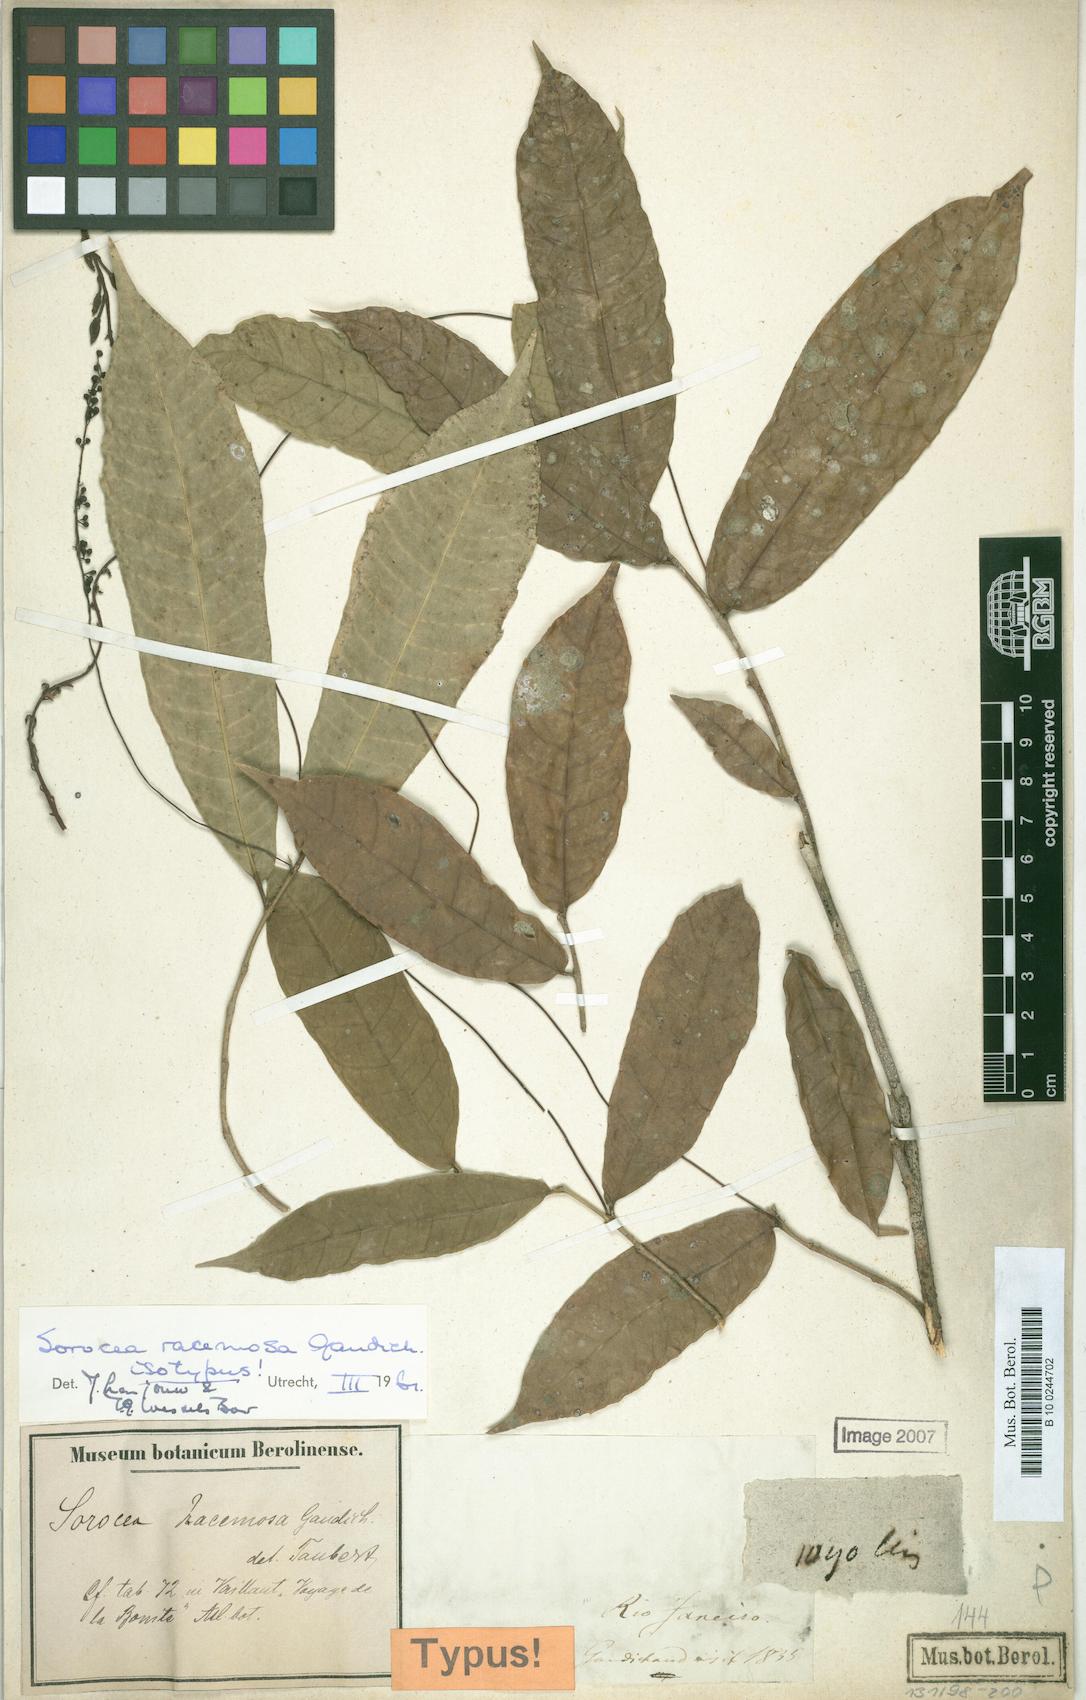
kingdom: Plantae
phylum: Tracheophyta
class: Magnoliopsida
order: Rosales
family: Moraceae
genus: Sorocea
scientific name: Sorocea hilarii
